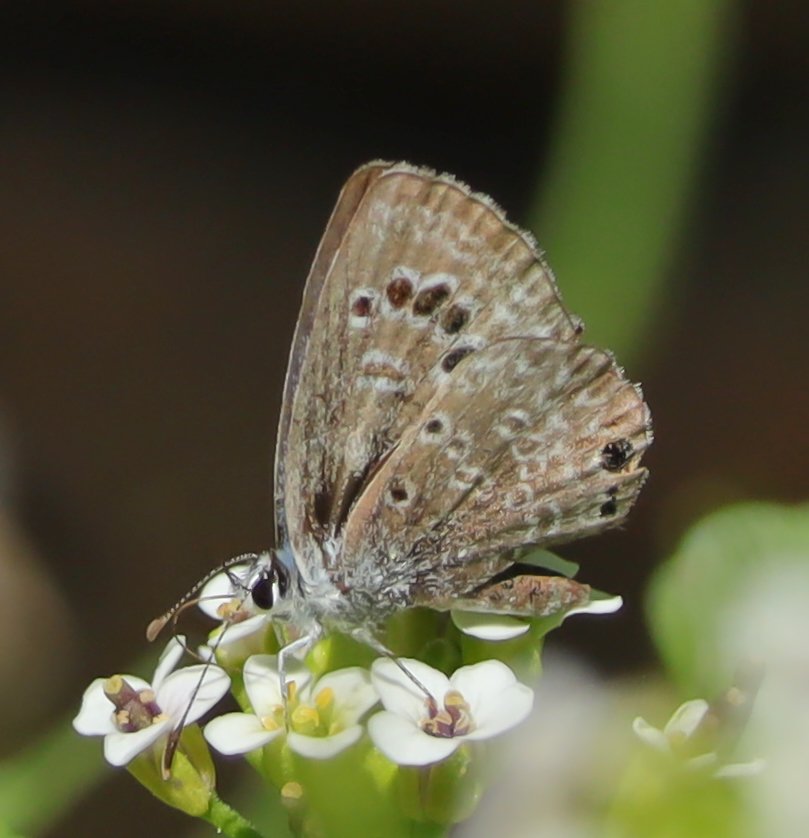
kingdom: Animalia
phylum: Arthropoda
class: Insecta
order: Lepidoptera
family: Lycaenidae
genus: Echinargus
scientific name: Echinargus isola
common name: Reakirt's Blue
